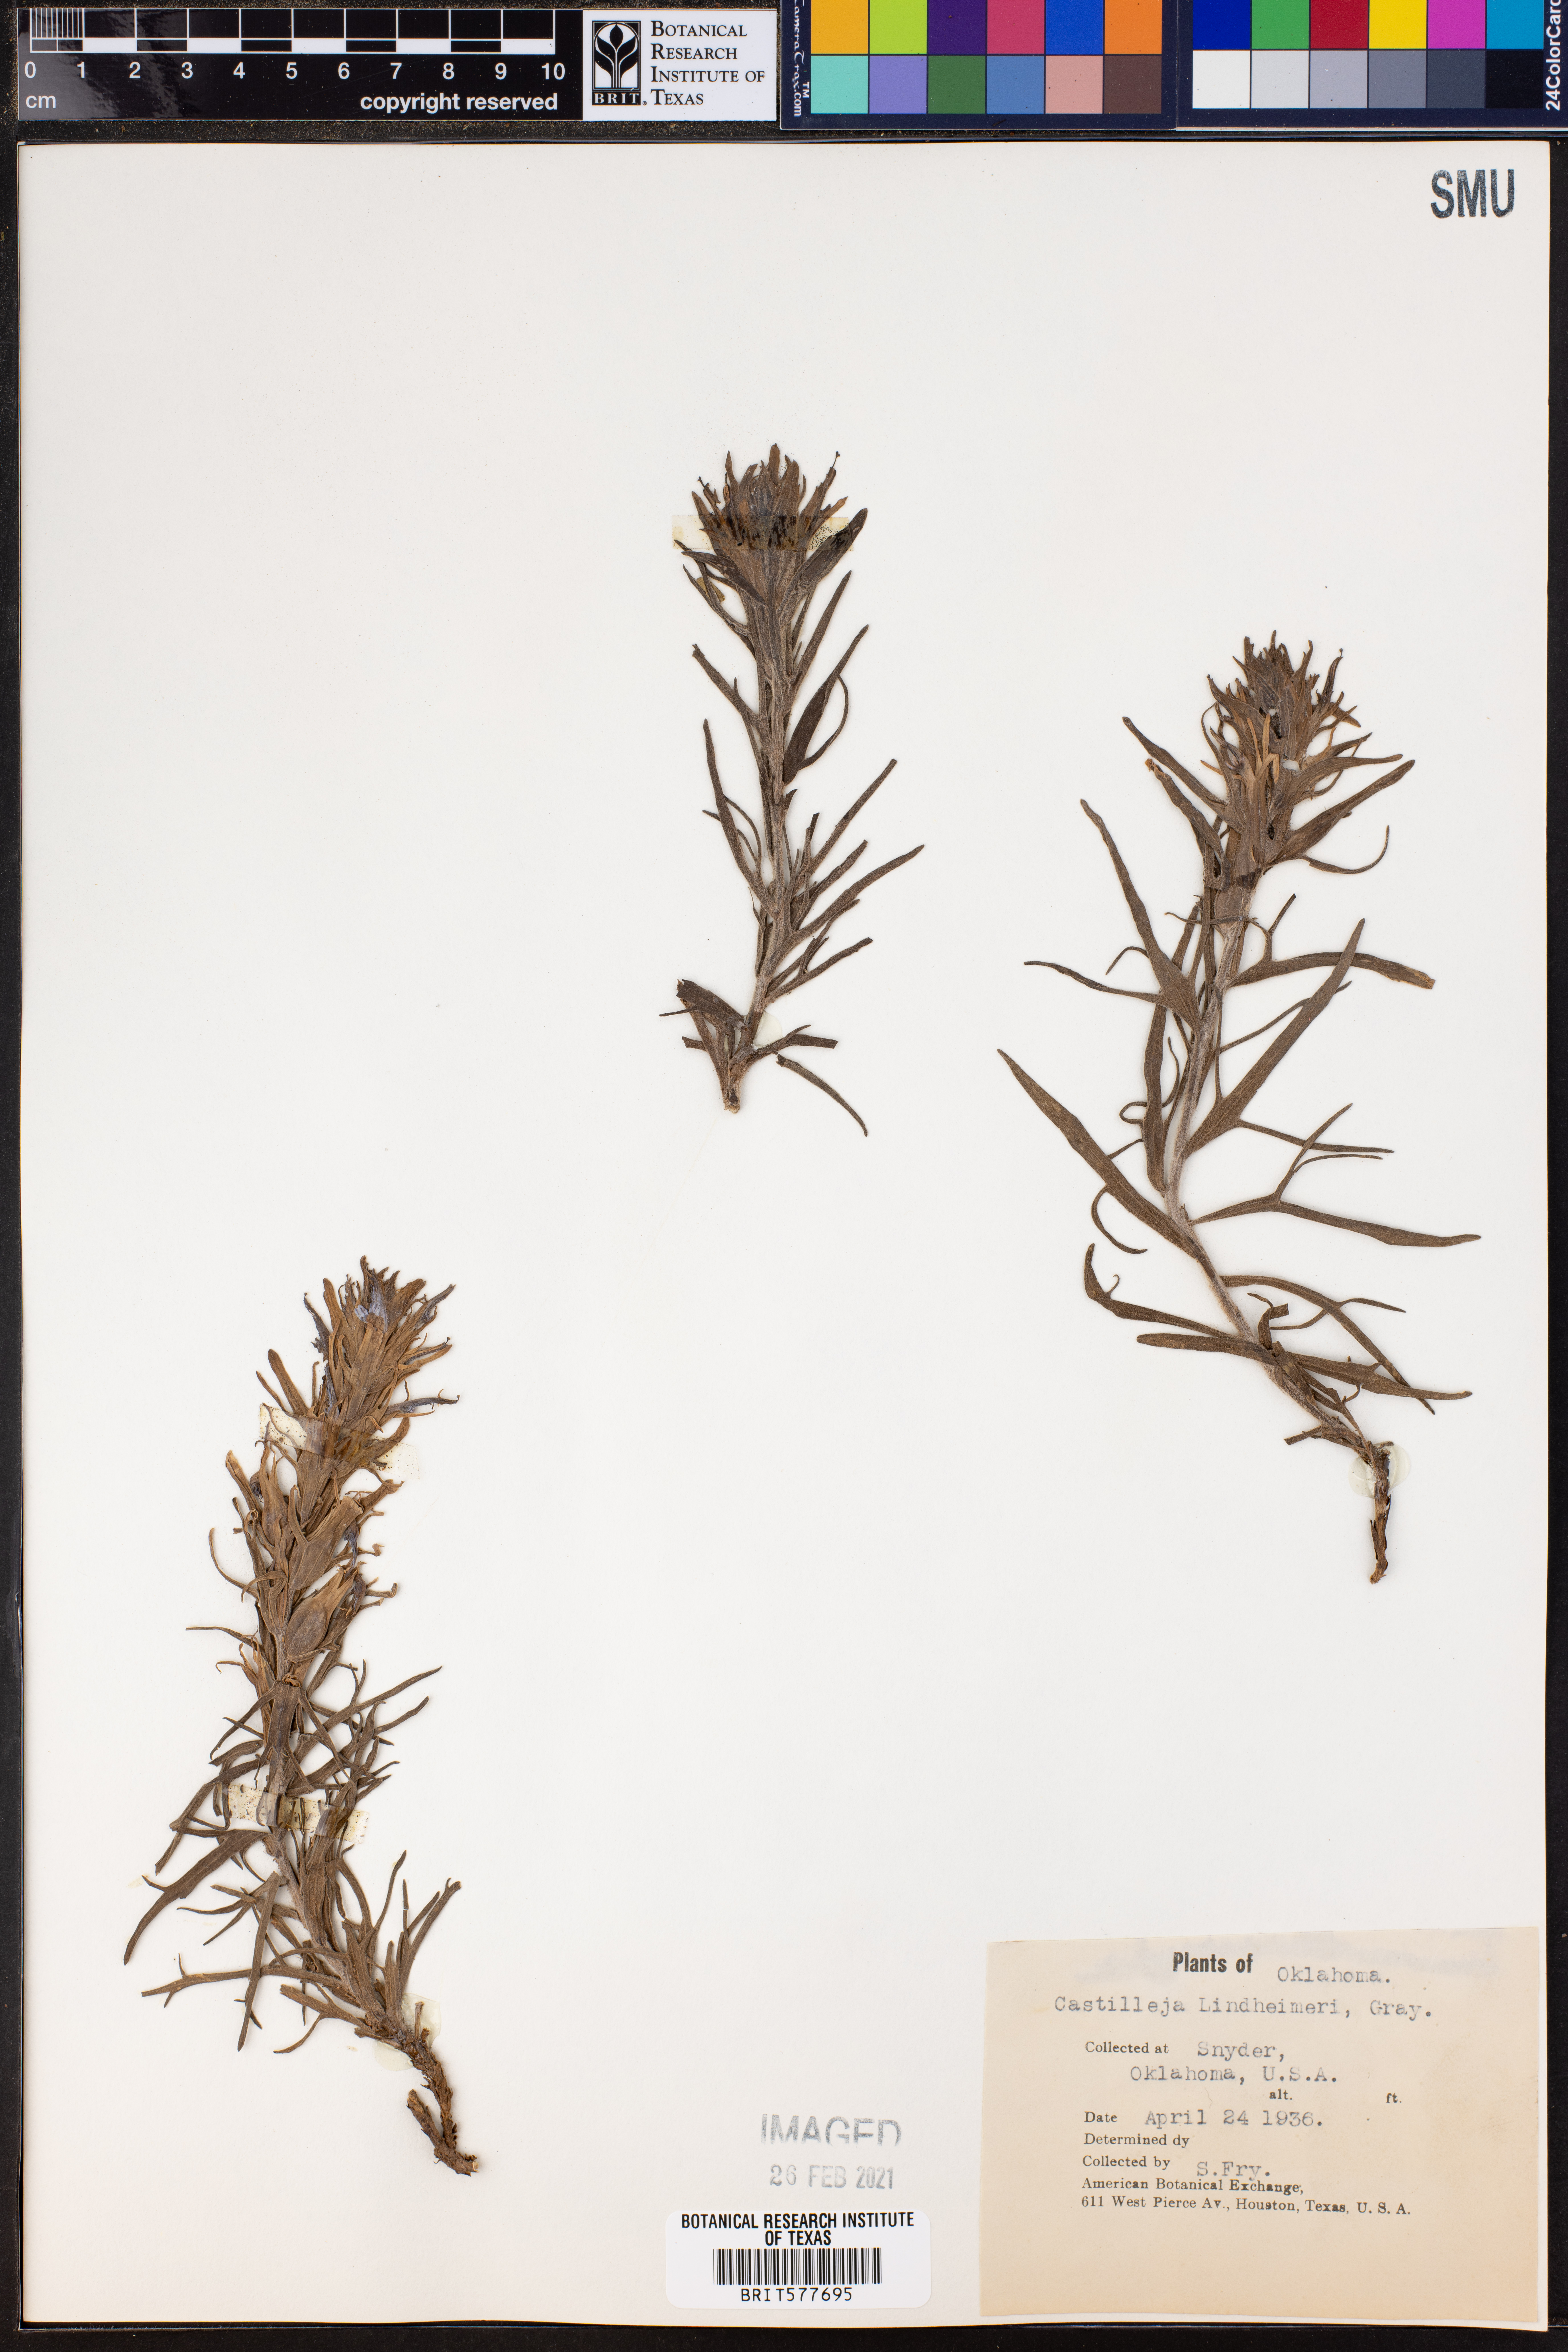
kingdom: Plantae
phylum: Tracheophyta
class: Magnoliopsida
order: Lamiales
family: Orobanchaceae
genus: Castilleja
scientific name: Castilleja lindheimeri
